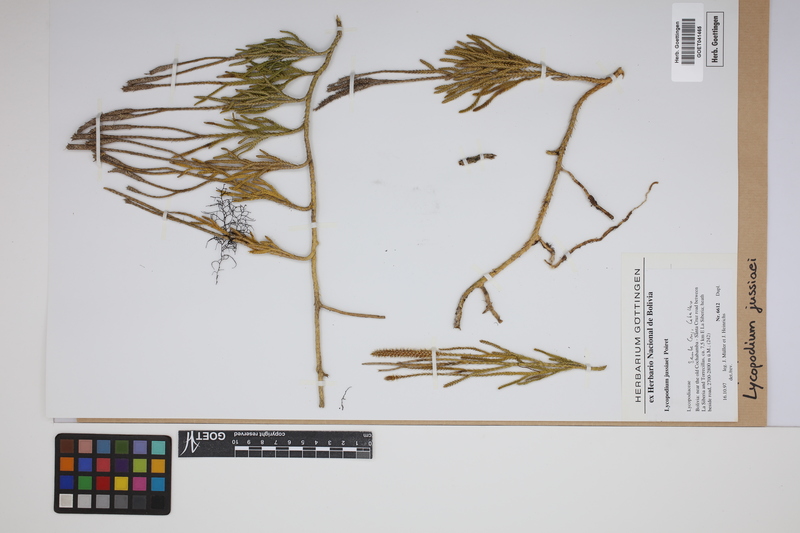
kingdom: Plantae
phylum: Tracheophyta
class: Lycopodiopsida
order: Lycopodiales
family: Lycopodiaceae
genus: Diphasium
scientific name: Diphasium jussiaei
